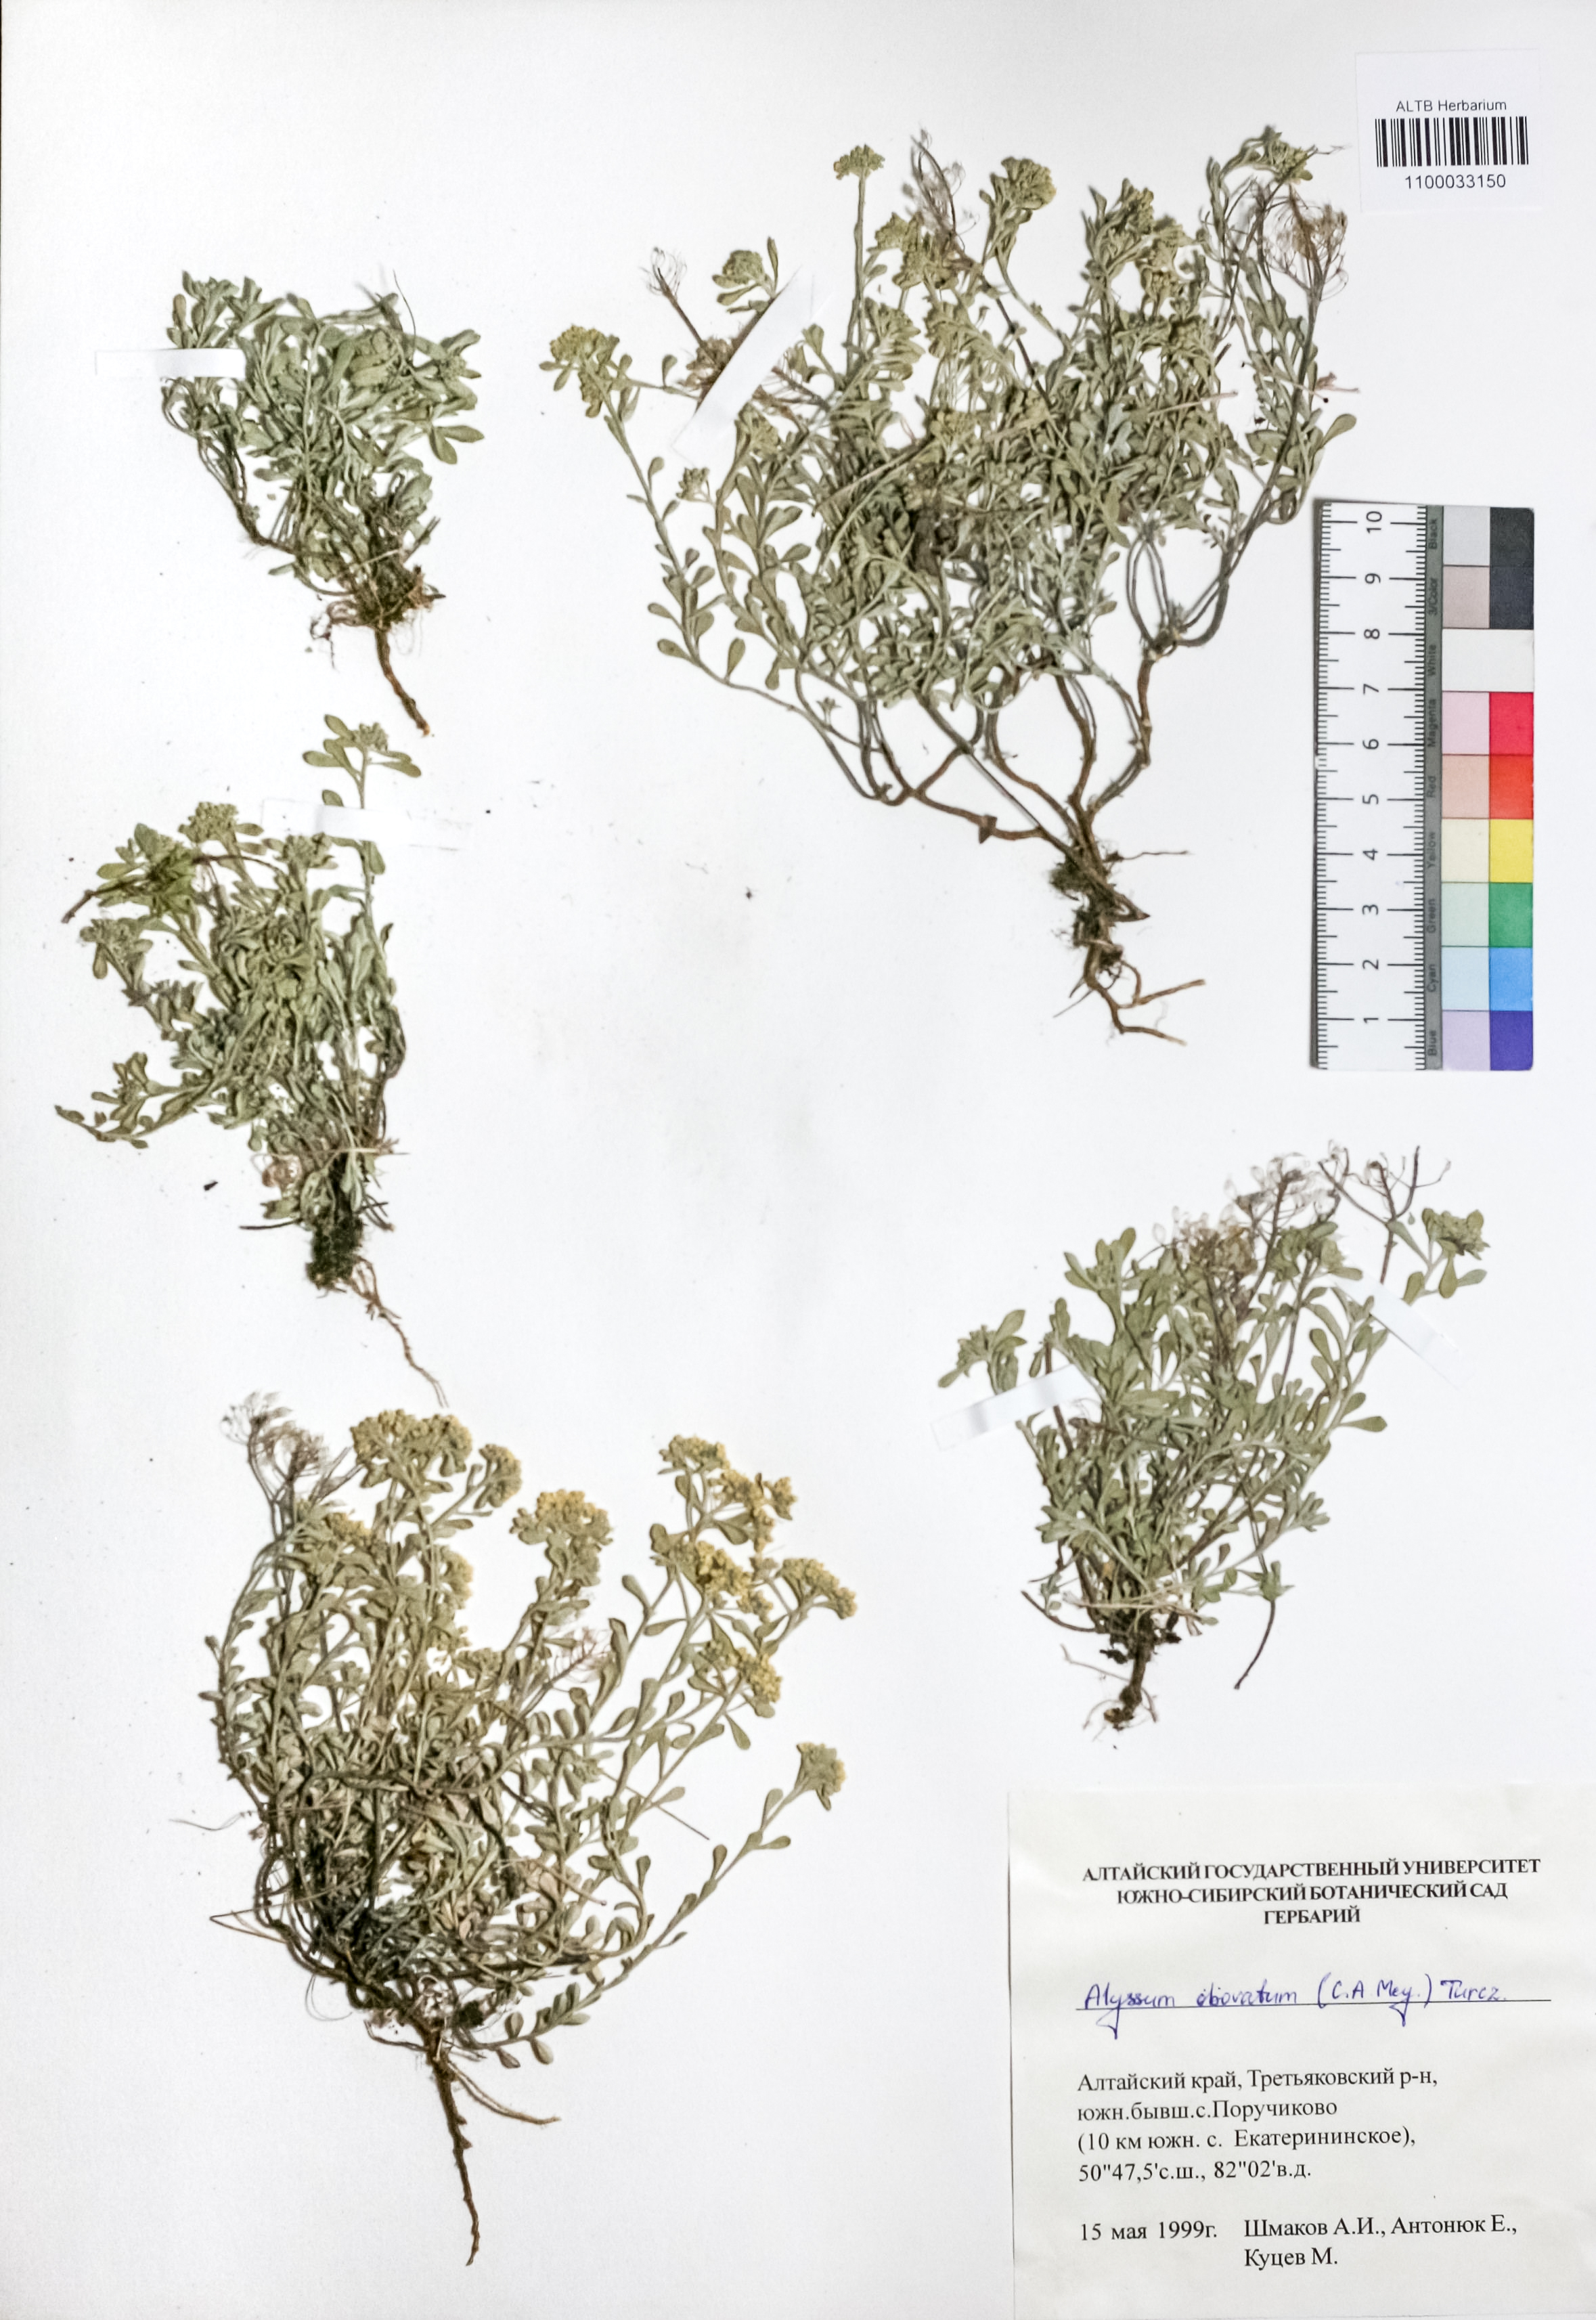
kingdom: Plantae
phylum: Tracheophyta
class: Magnoliopsida
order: Brassicales
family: Brassicaceae
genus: Odontarrhena
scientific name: Odontarrhena obovata
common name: American alyssum
